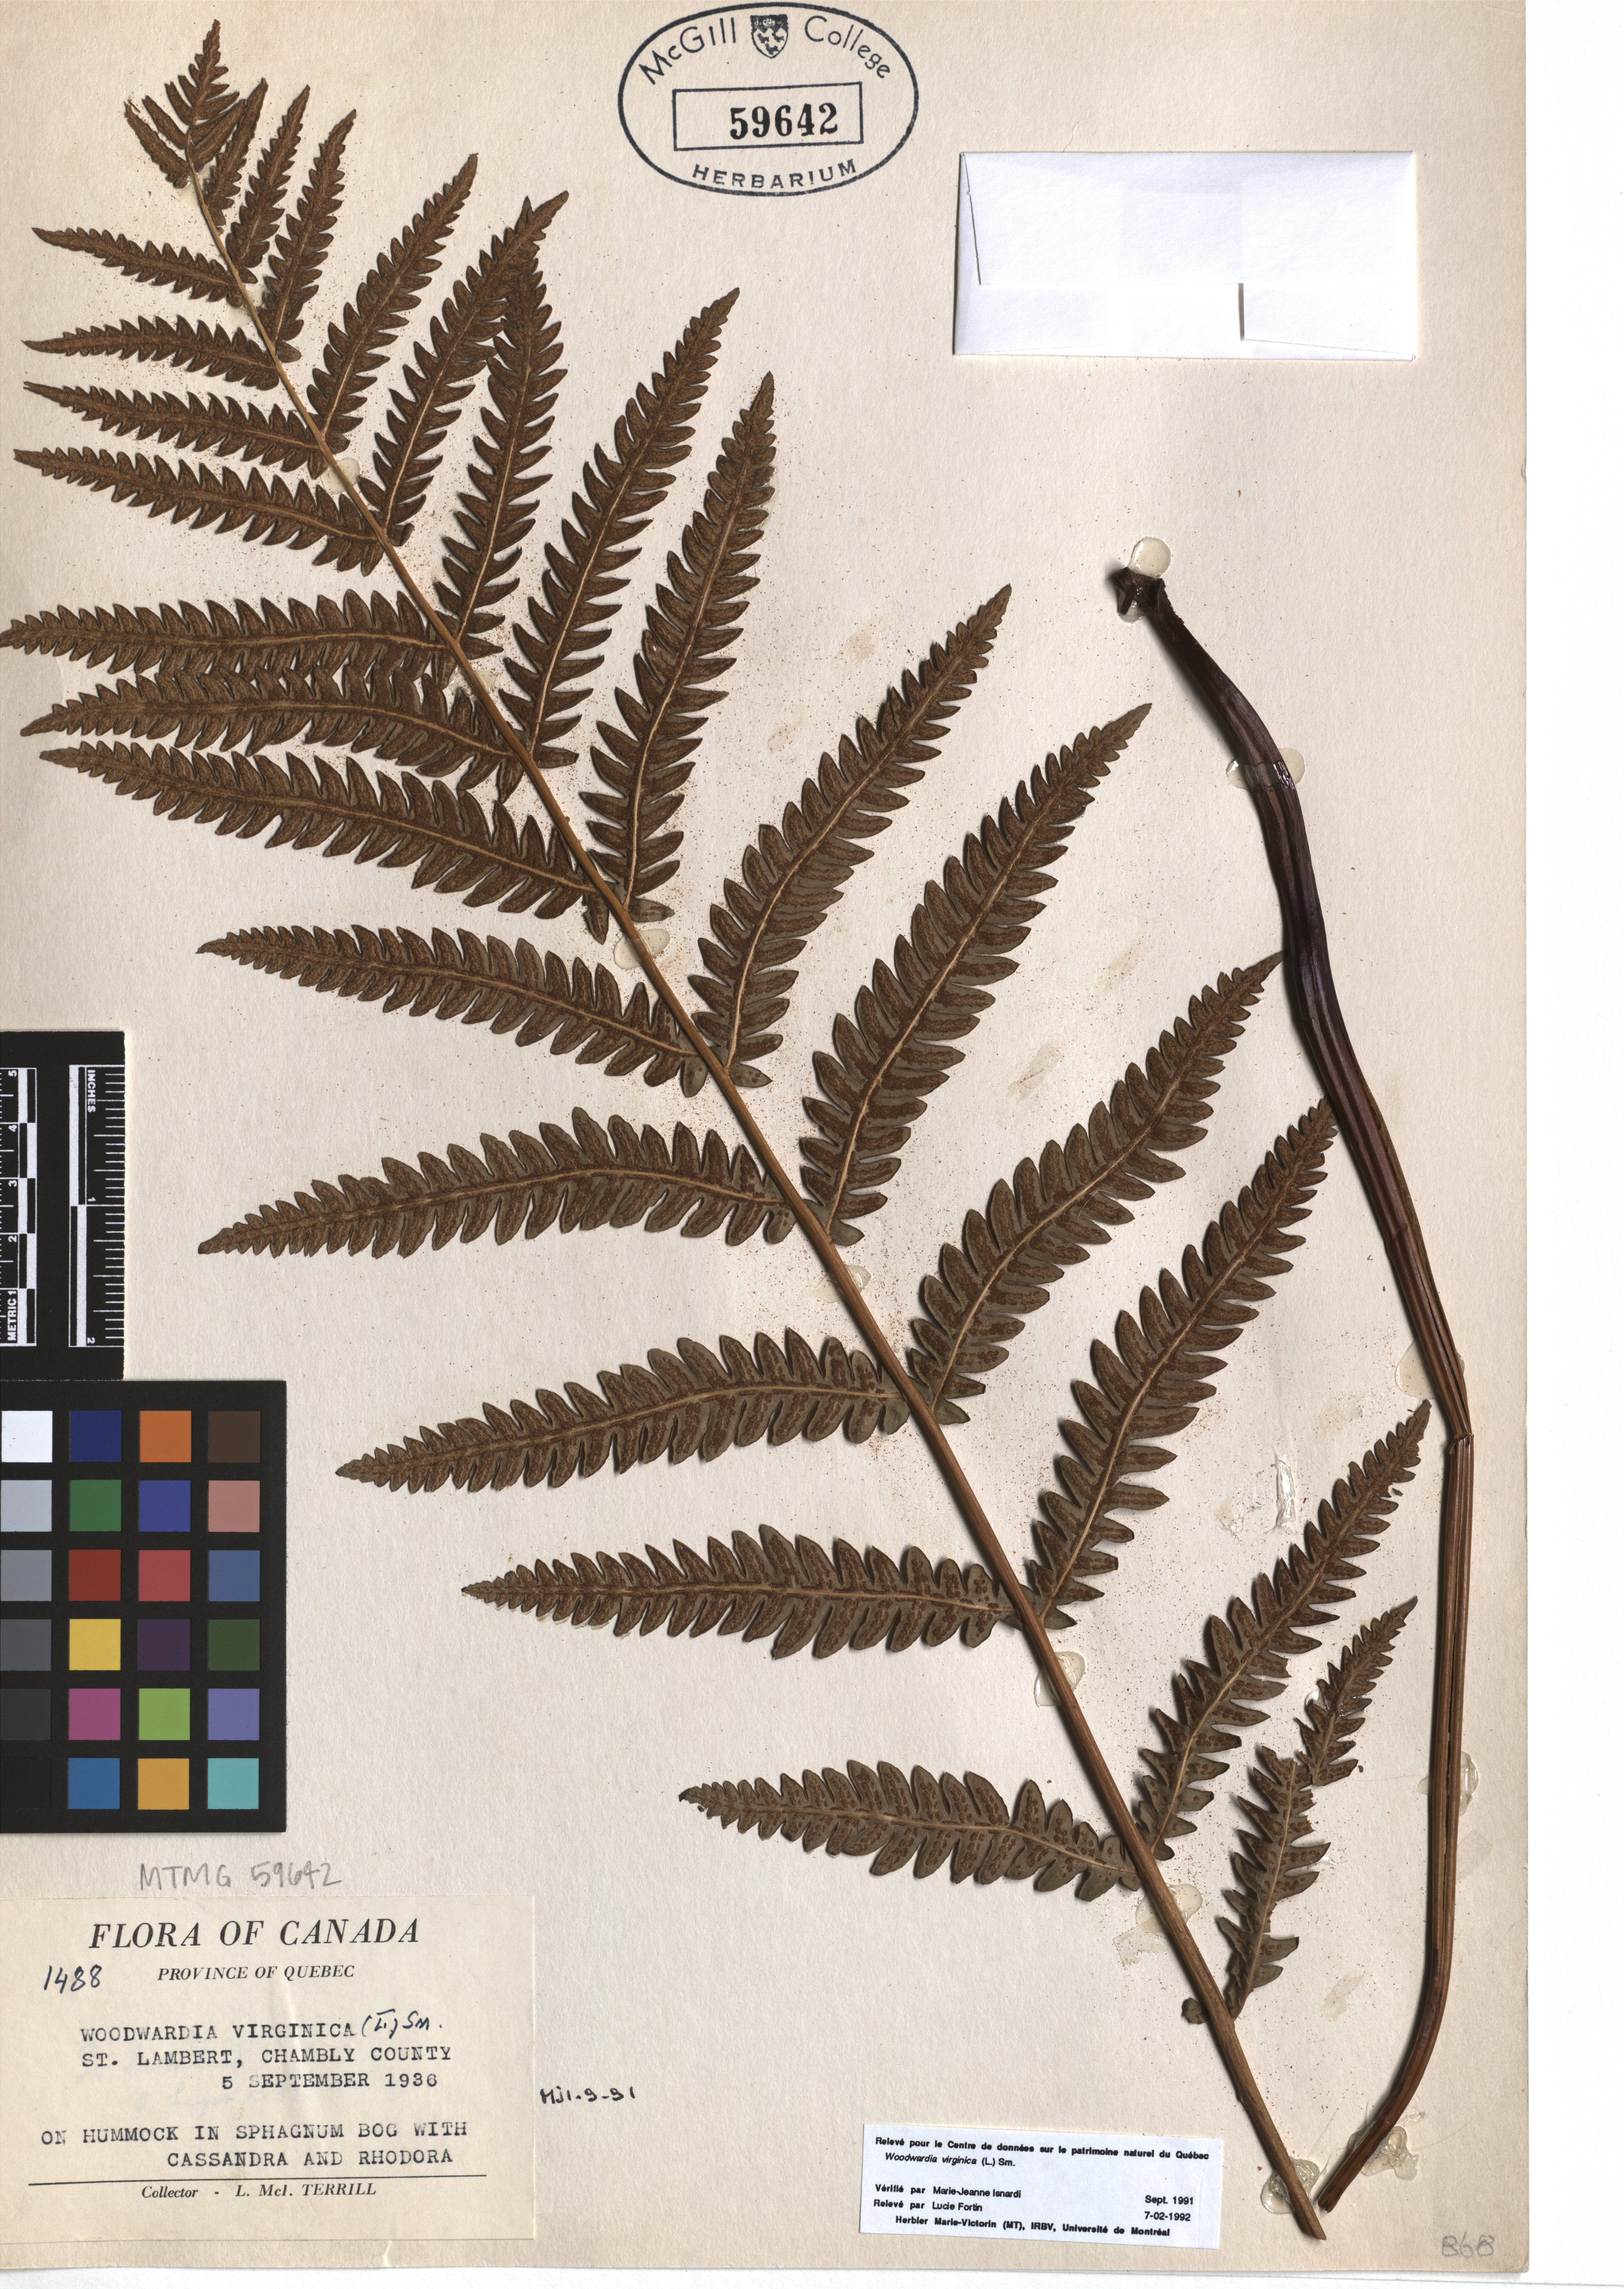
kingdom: Plantae
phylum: Tracheophyta
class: Polypodiopsida
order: Polypodiales
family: Blechnaceae
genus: Anchistea
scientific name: Anchistea virginica
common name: Virginia chain fern
